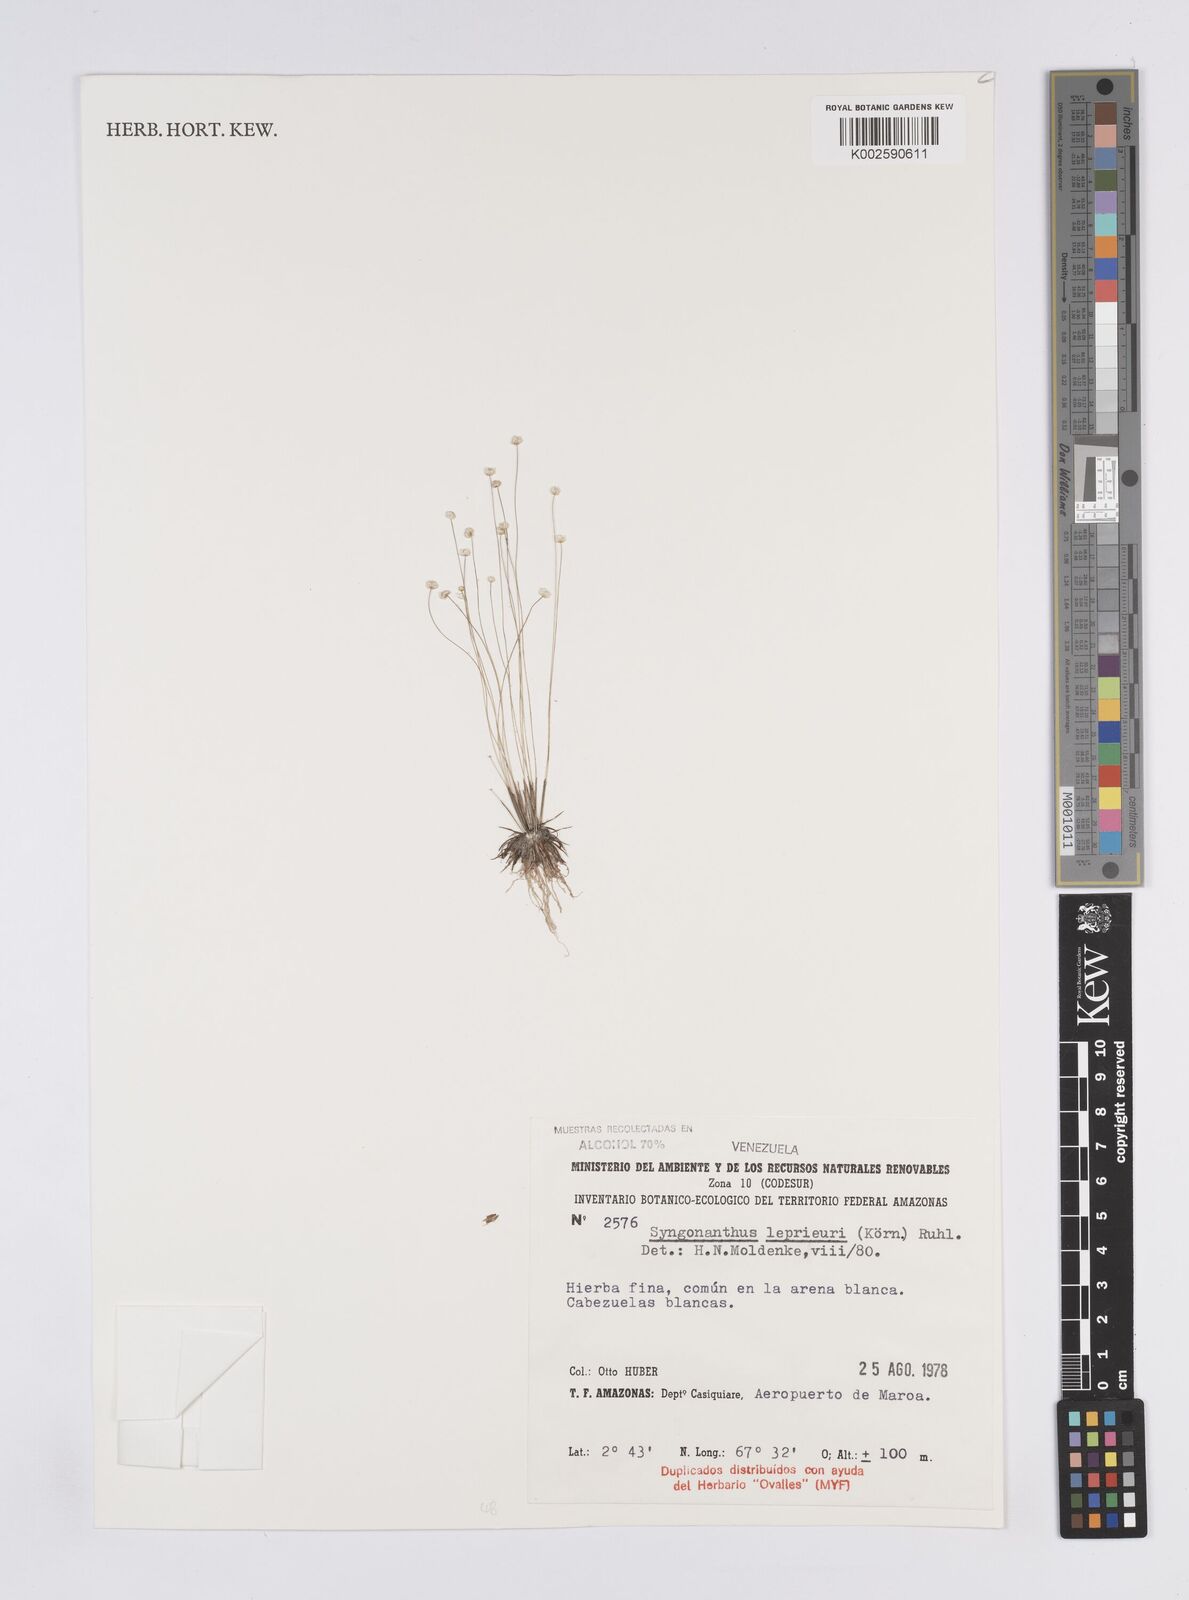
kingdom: Plantae
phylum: Tracheophyta
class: Liliopsida
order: Poales
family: Eriocaulaceae
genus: Syngonanthus
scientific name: Syngonanthus leprieurii
